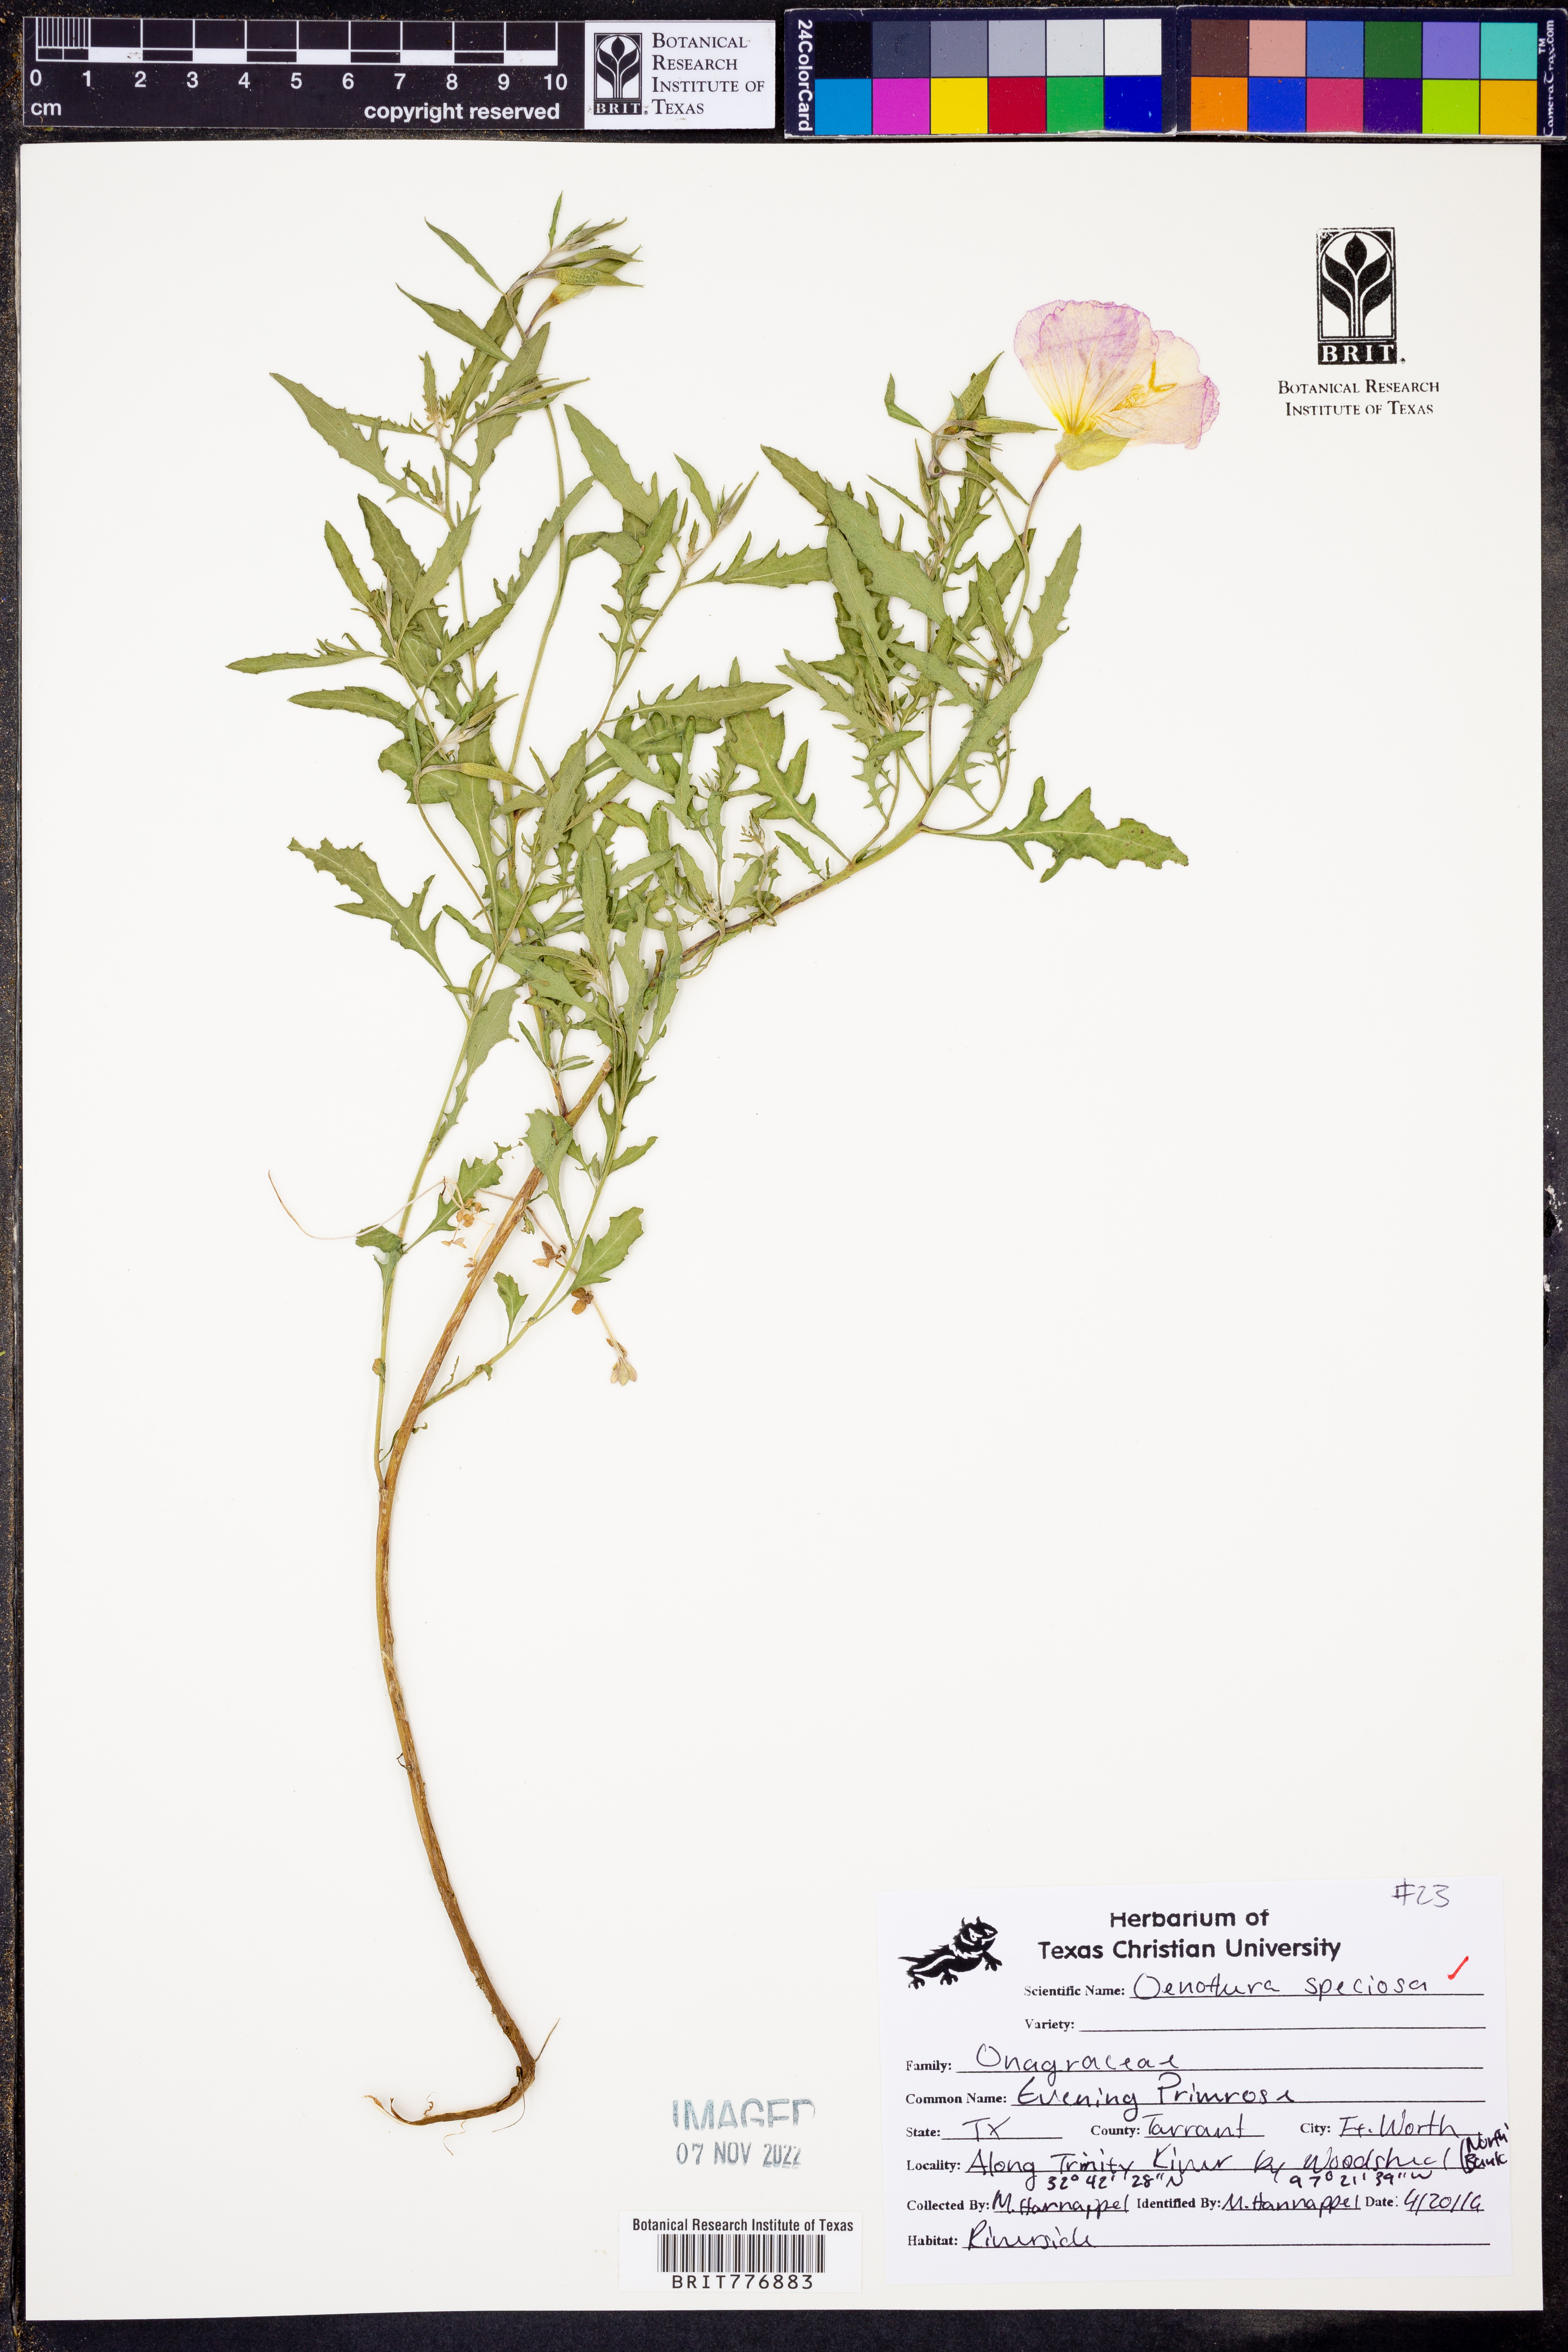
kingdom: Plantae
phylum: Tracheophyta
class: Magnoliopsida
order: Myrtales
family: Onagraceae
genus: Oenothera
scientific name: Oenothera speciosa
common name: White evening-primrose
